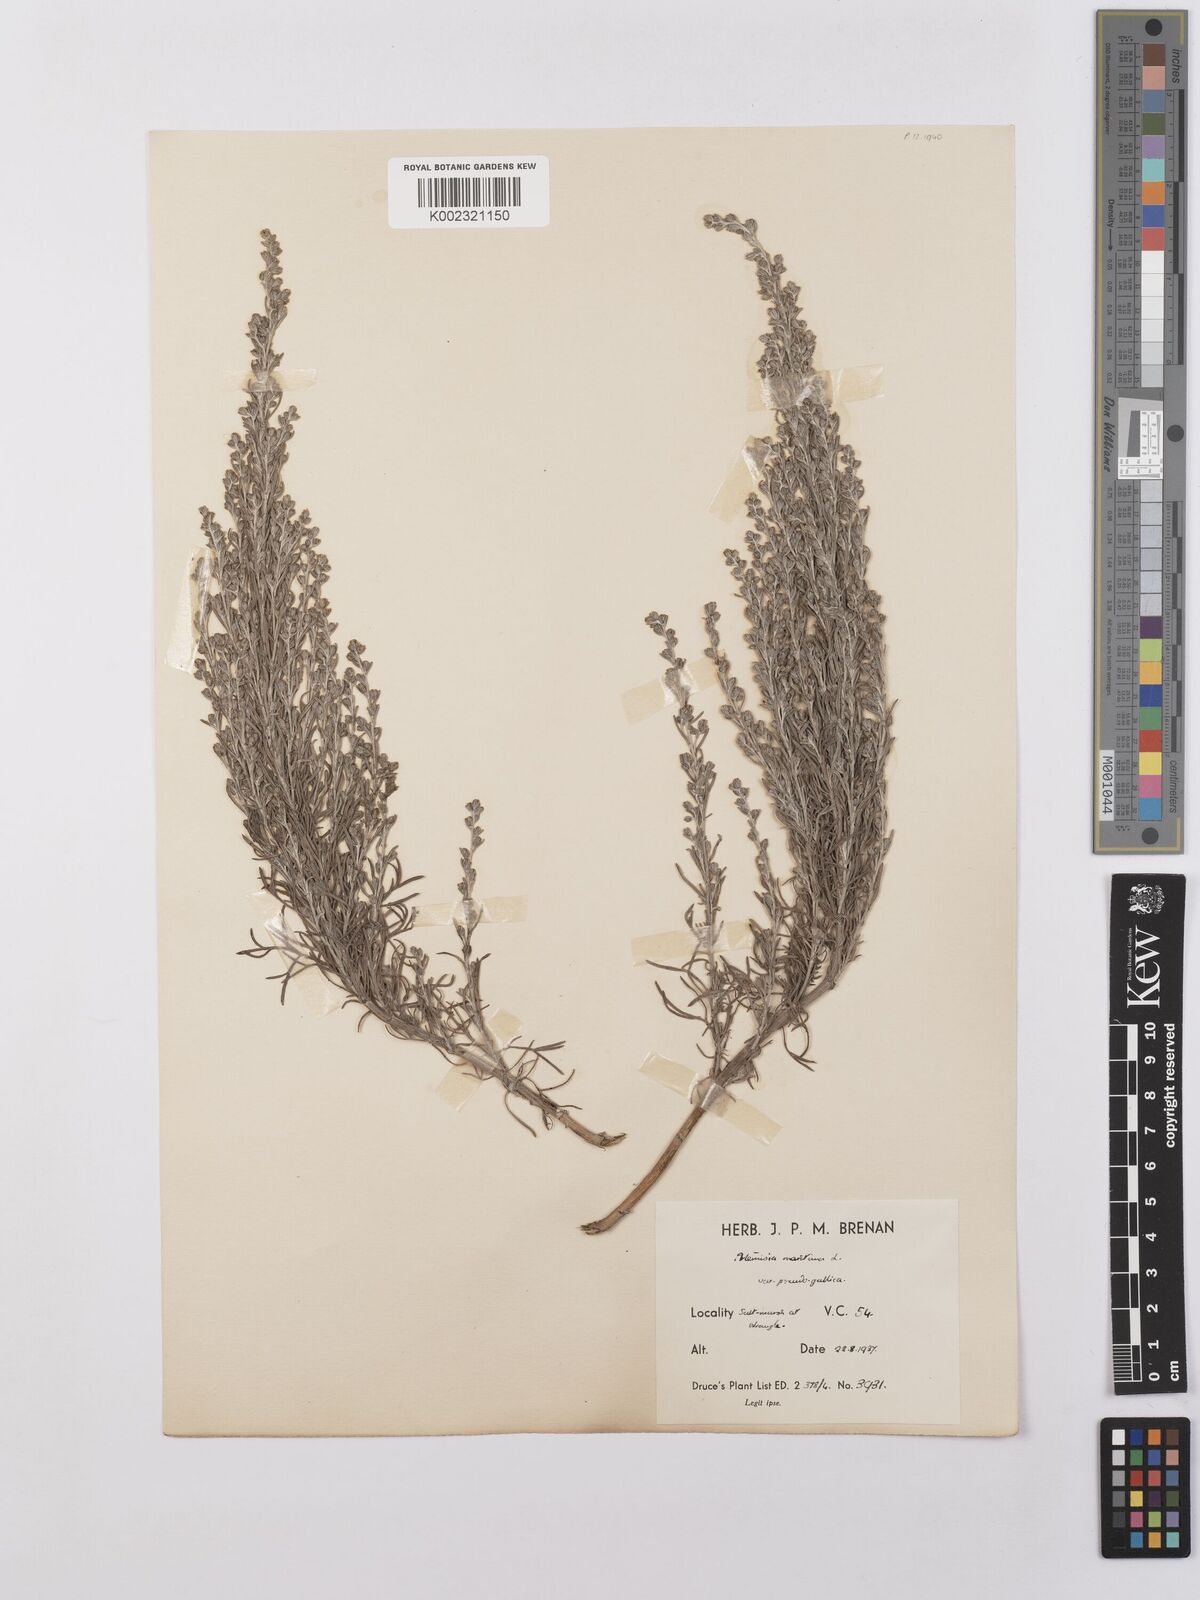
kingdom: Plantae
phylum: Tracheophyta
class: Magnoliopsida
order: Asterales
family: Asteraceae
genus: Artemisia
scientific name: Artemisia maritima
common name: Wormseed
